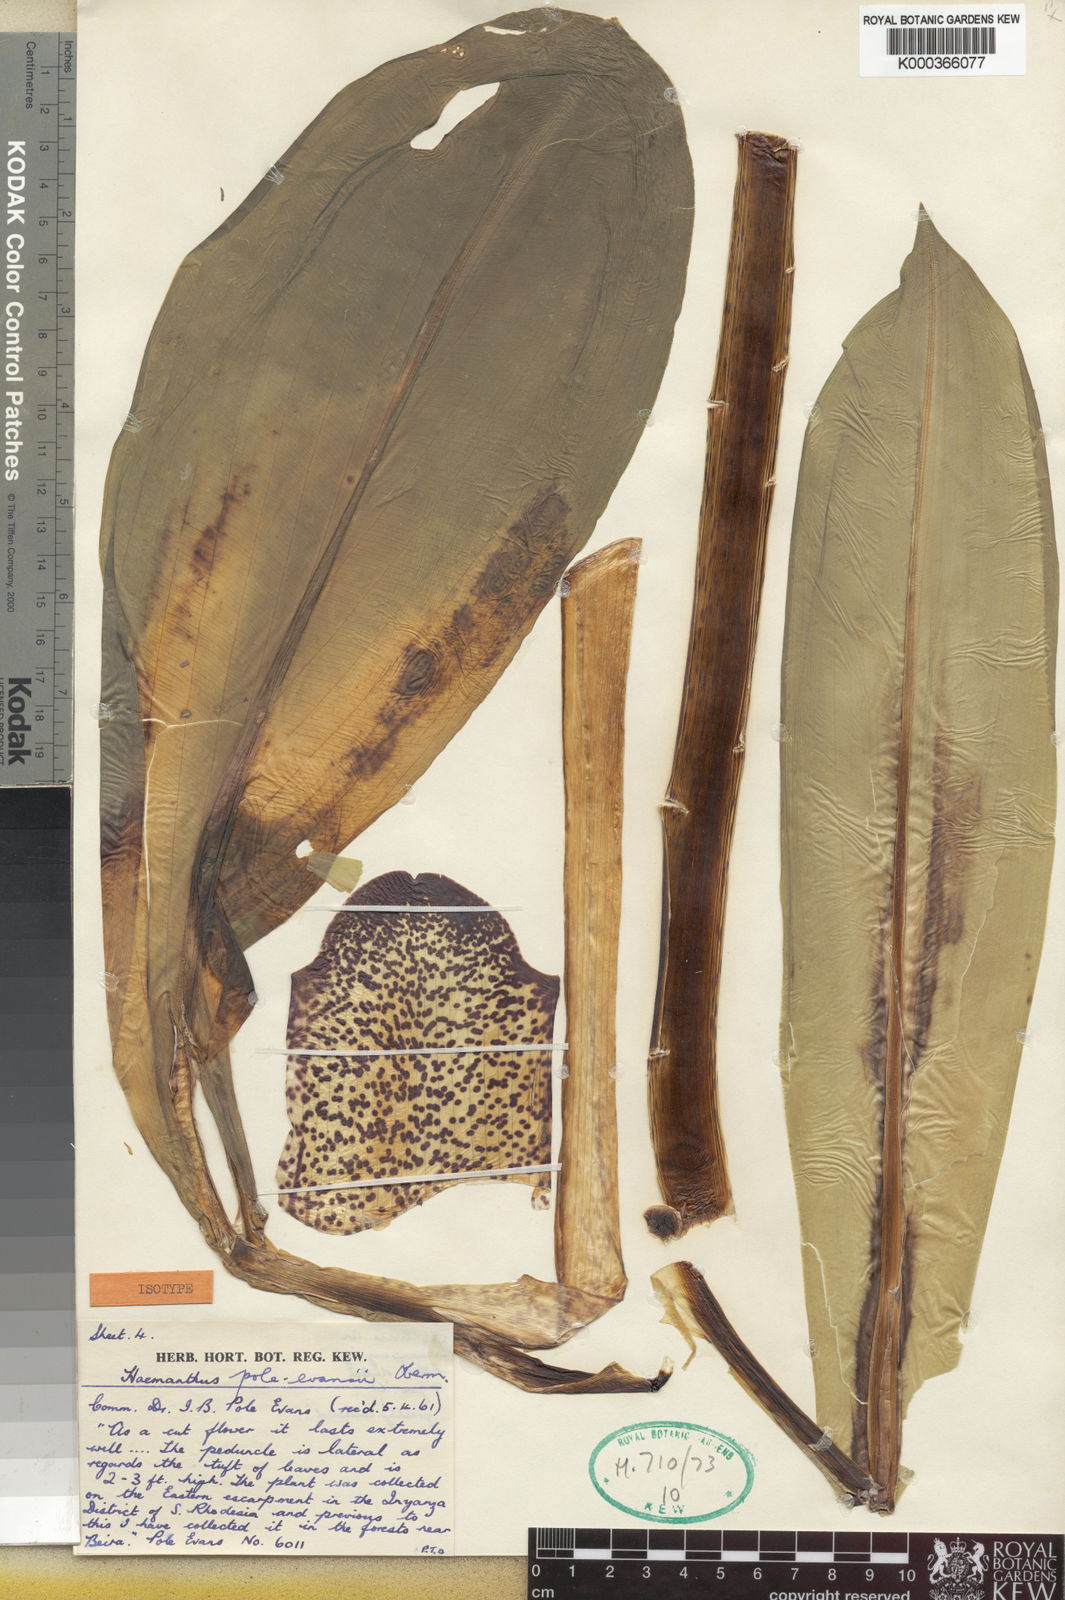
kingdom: Plantae
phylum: Tracheophyta
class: Liliopsida
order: Asparagales
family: Amaryllidaceae
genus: Scadoxus
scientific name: Scadoxus pole-evansii
